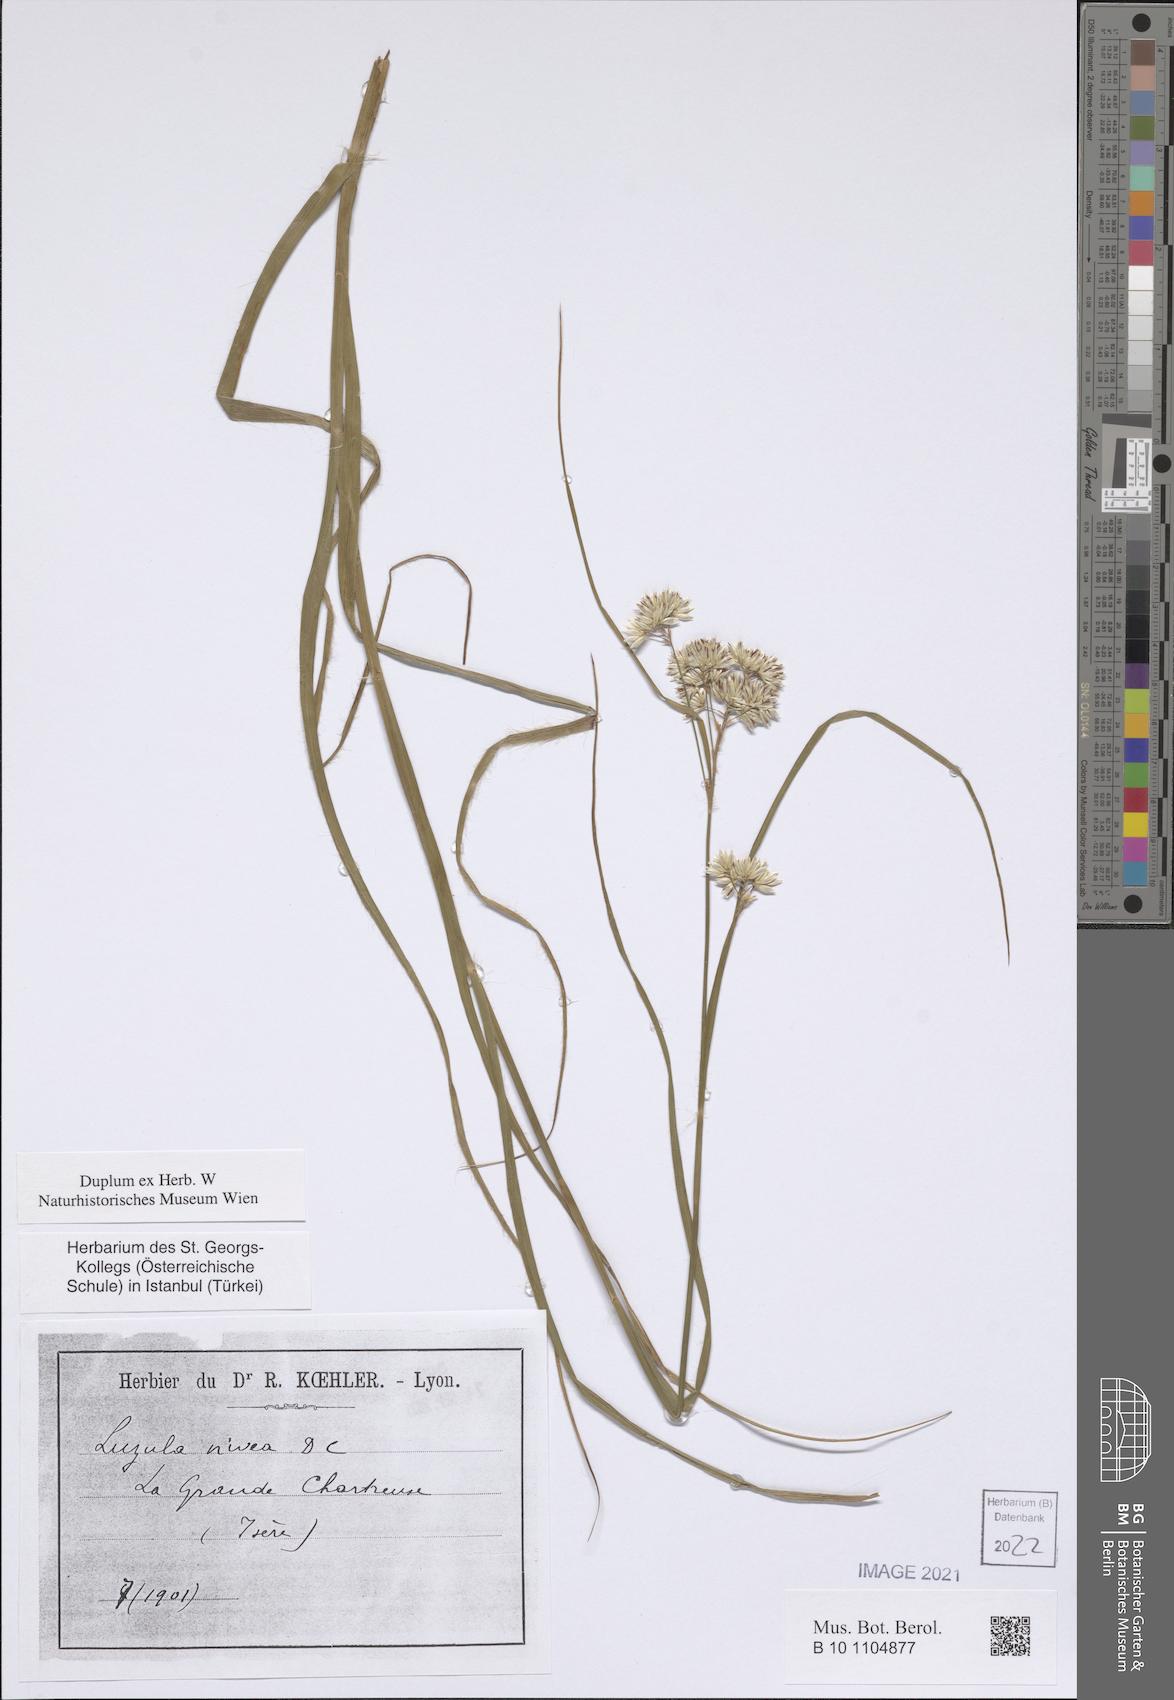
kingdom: Plantae
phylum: Tracheophyta
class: Liliopsida
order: Poales
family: Juncaceae
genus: Luzula
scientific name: Luzula nivea
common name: Snow-white wood-rush
